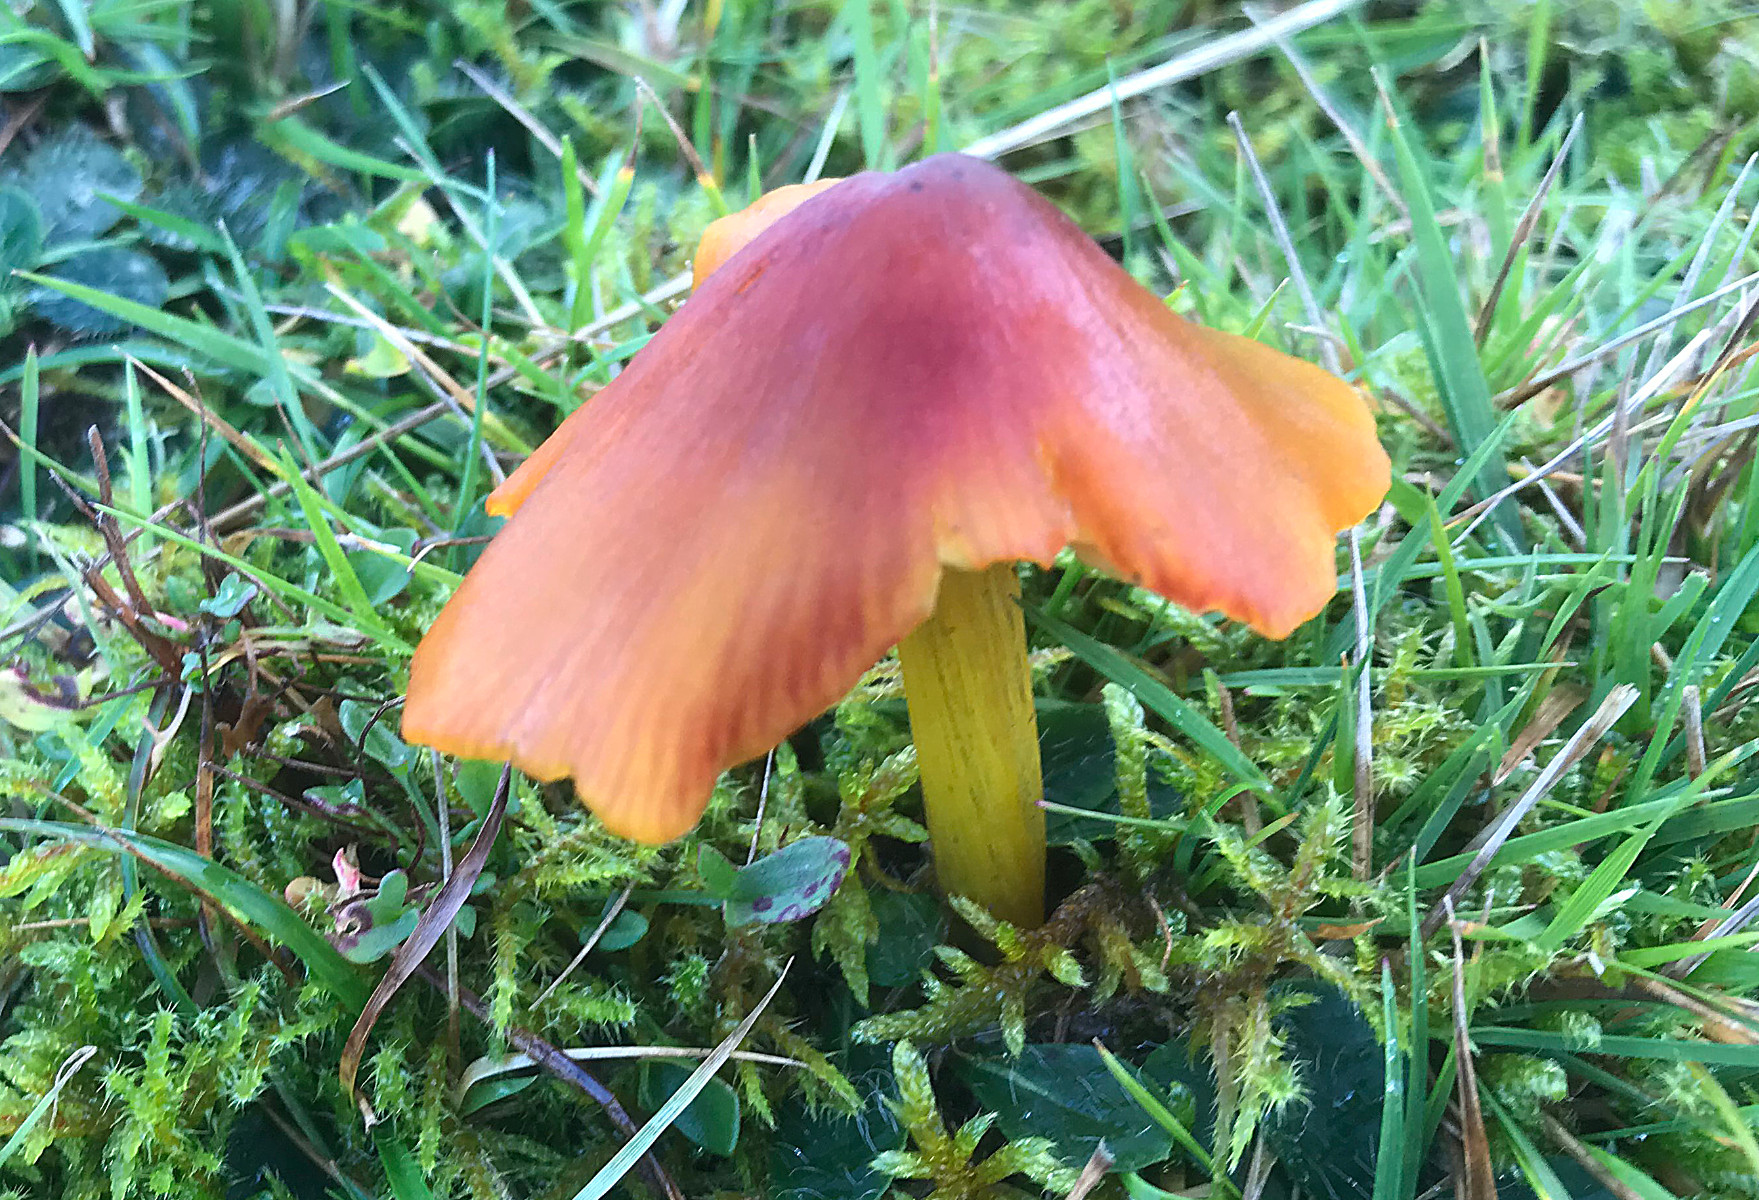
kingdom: Fungi
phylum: Basidiomycota
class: Agaricomycetes
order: Agaricales
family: Hygrophoraceae
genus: Hygrocybe
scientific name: Hygrocybe conica
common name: kegle-vokshat
